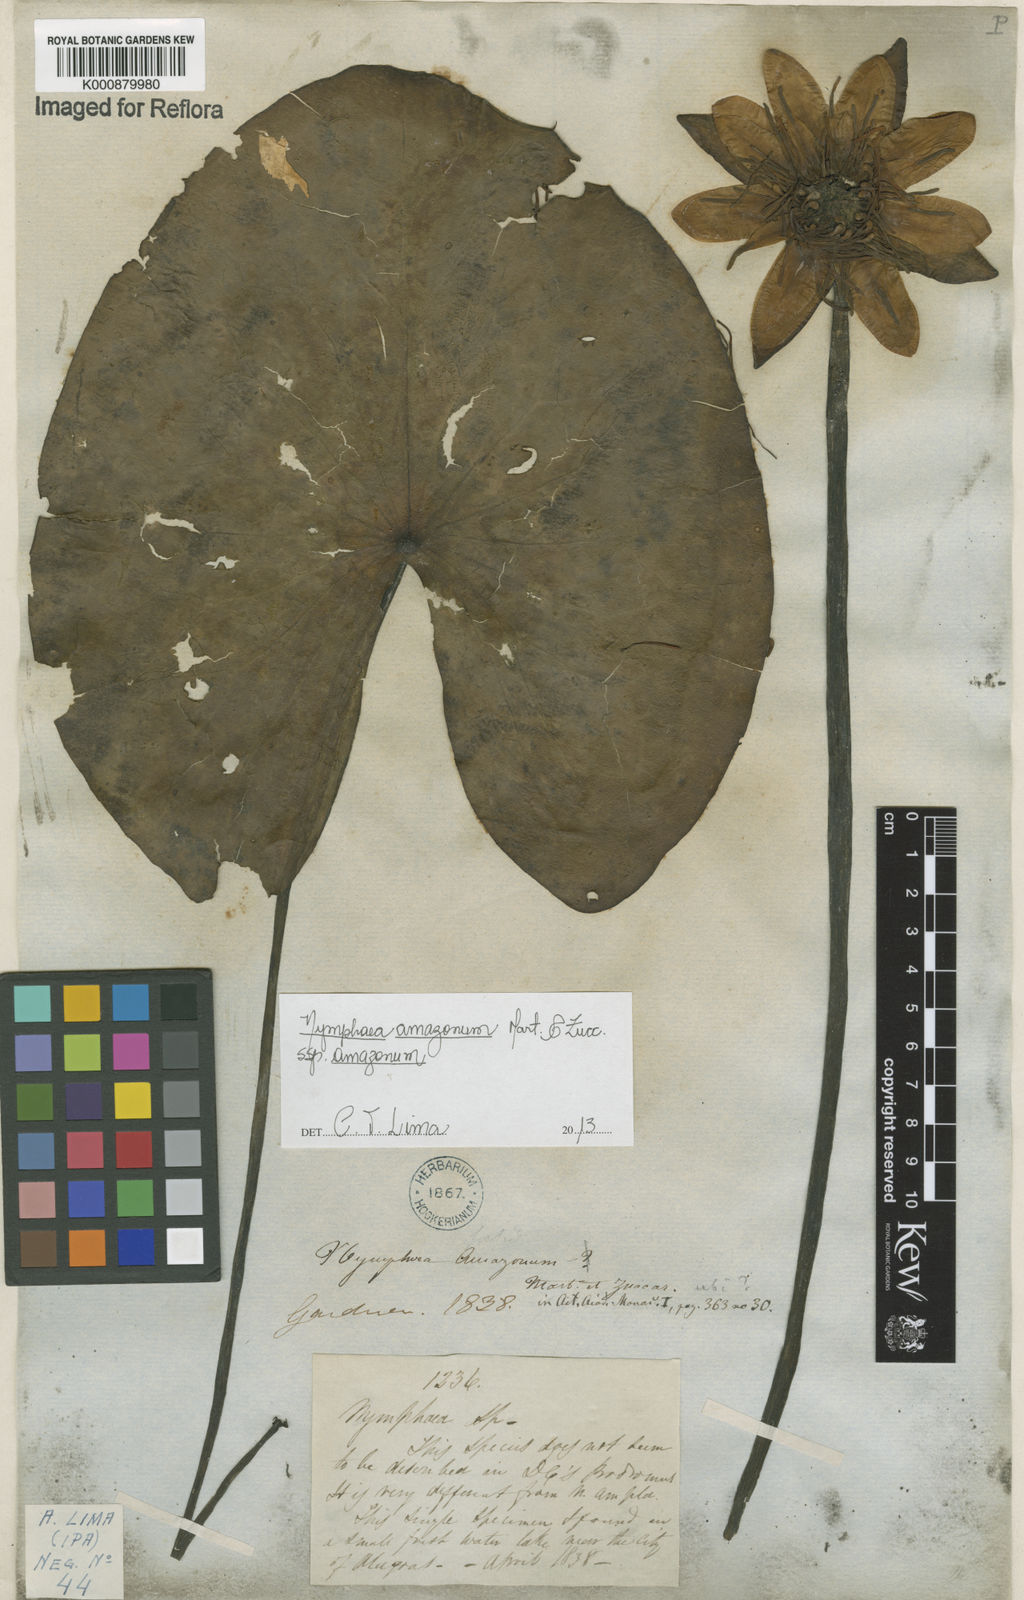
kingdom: Plantae
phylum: Tracheophyta
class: Magnoliopsida
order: Nymphaeales
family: Nymphaeaceae
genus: Nymphaea
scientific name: Nymphaea amazonum
